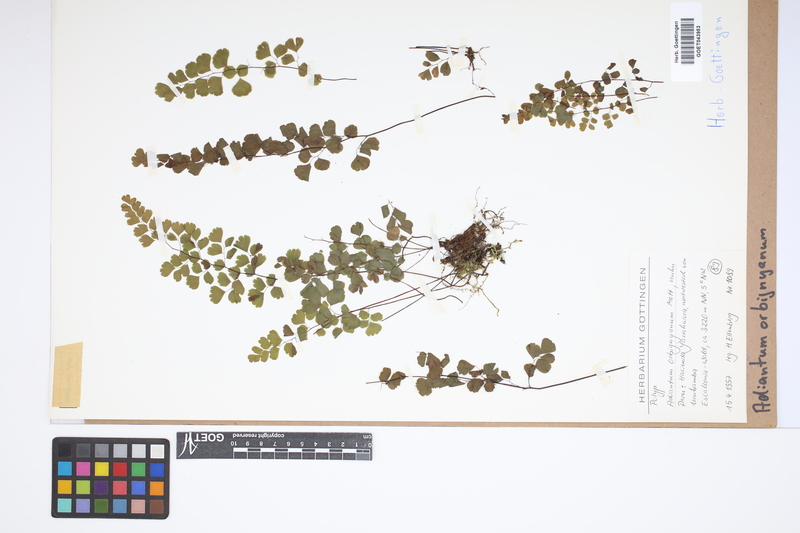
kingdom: Plantae
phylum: Tracheophyta
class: Polypodiopsida
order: Polypodiales
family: Pteridaceae
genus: Adiantum
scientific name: Adiantum orbignyanum
